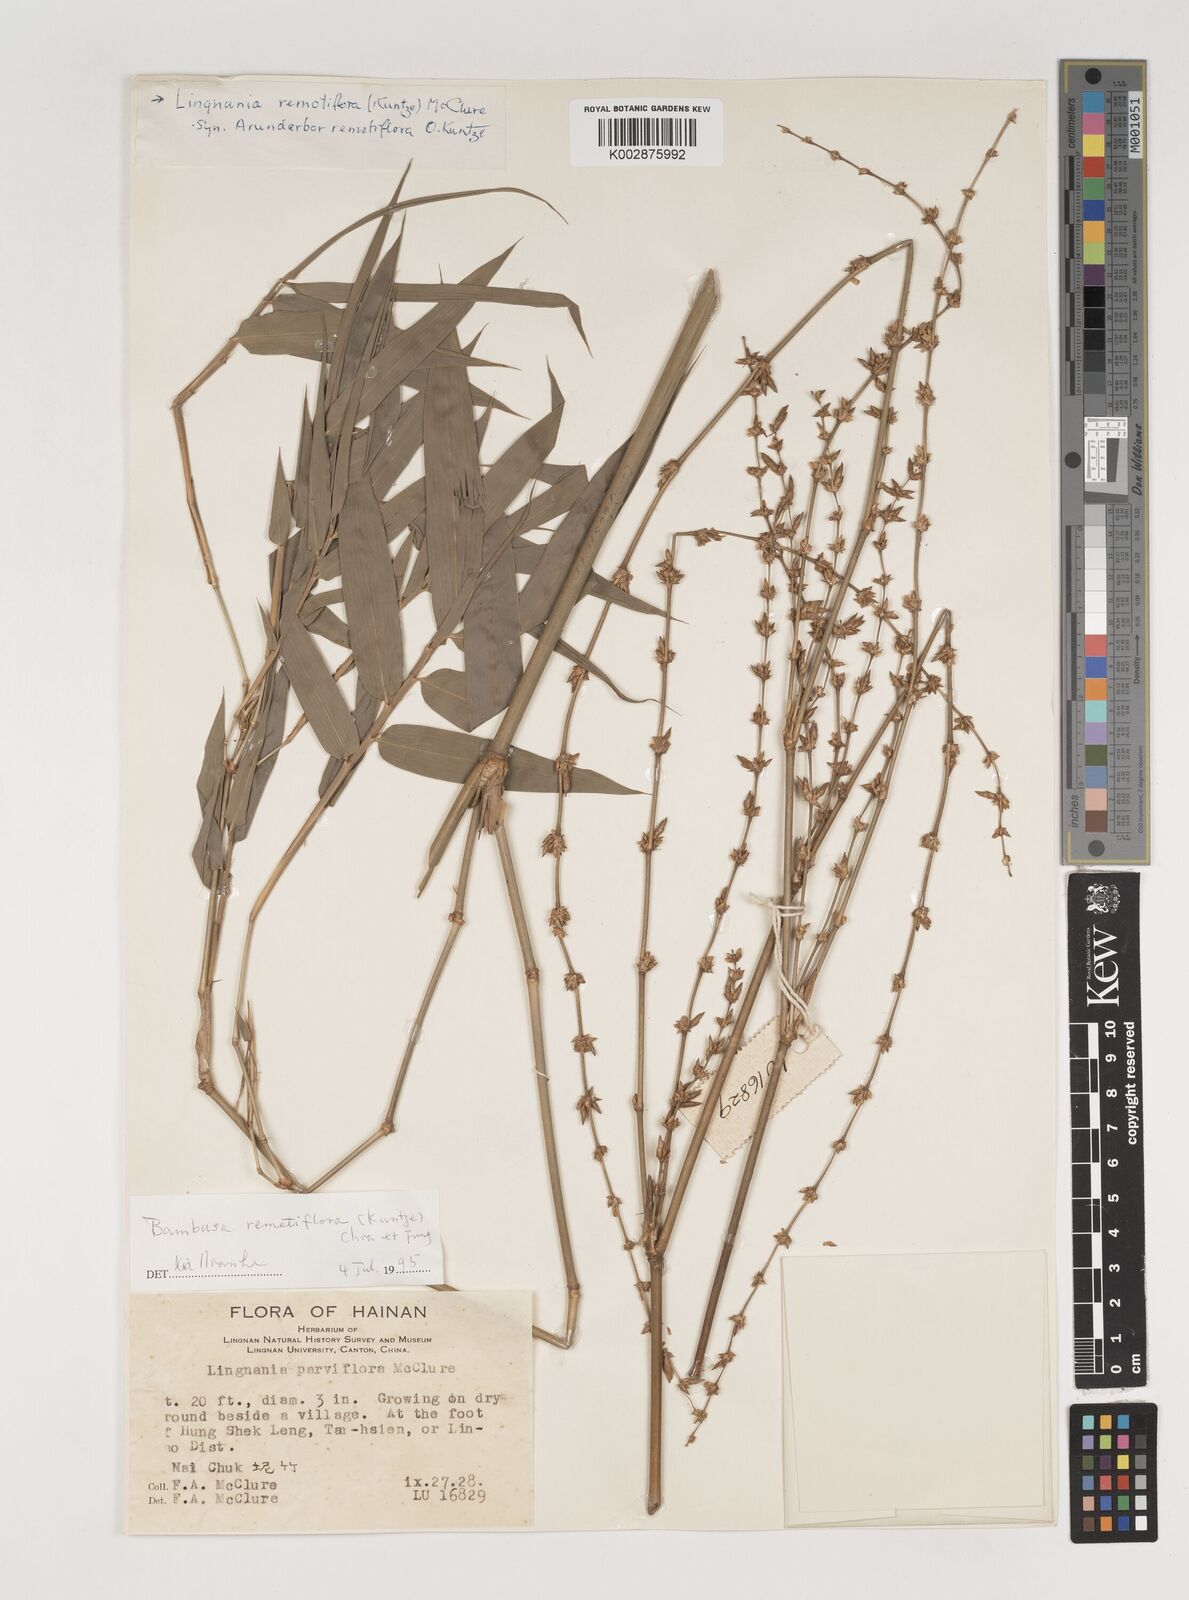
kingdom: Plantae
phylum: Tracheophyta
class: Liliopsida
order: Poales
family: Poaceae
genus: Bambusa
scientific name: Bambusa remotiflora
